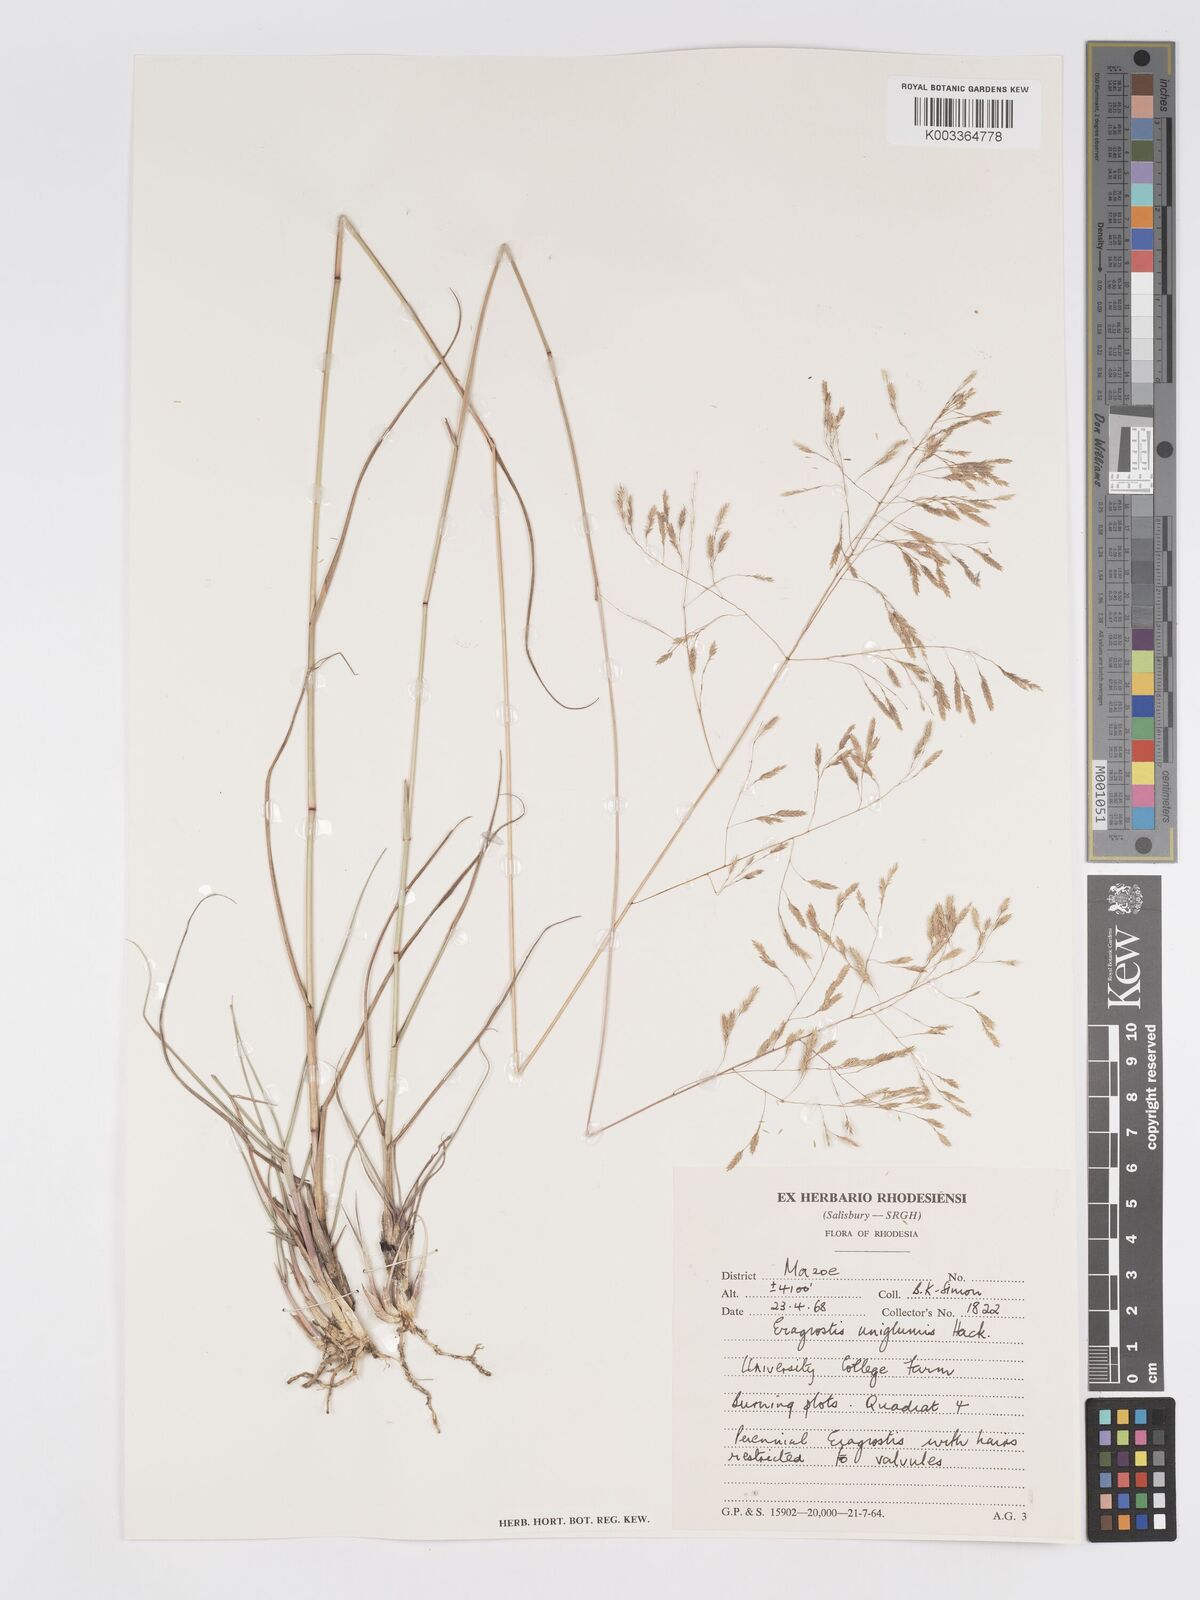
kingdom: Plantae
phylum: Tracheophyta
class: Liliopsida
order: Poales
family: Poaceae
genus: Eragrostis
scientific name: Eragrostis hierniana
